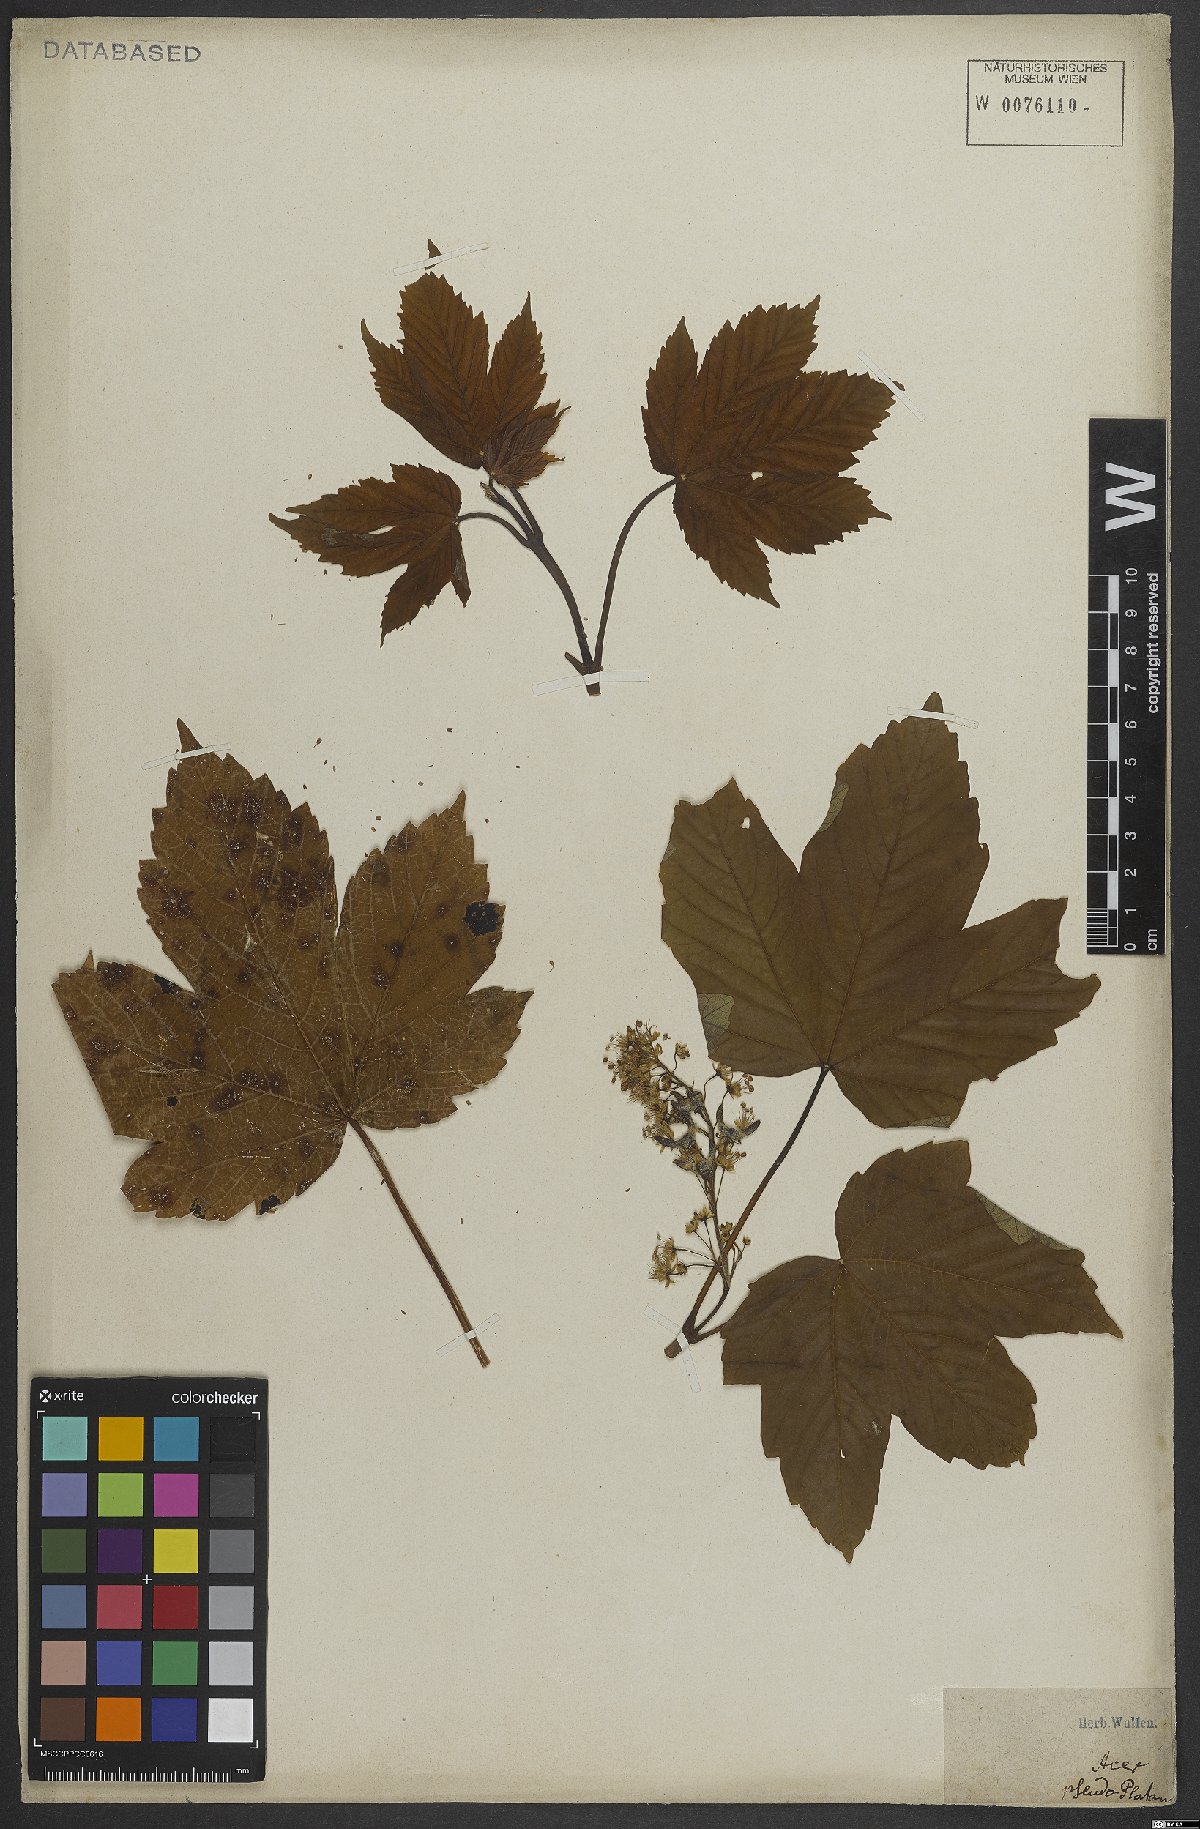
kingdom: Plantae
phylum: Tracheophyta
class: Magnoliopsida
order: Sapindales
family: Sapindaceae
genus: Acer
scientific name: Acer pseudoplatanus
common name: Sycamore
